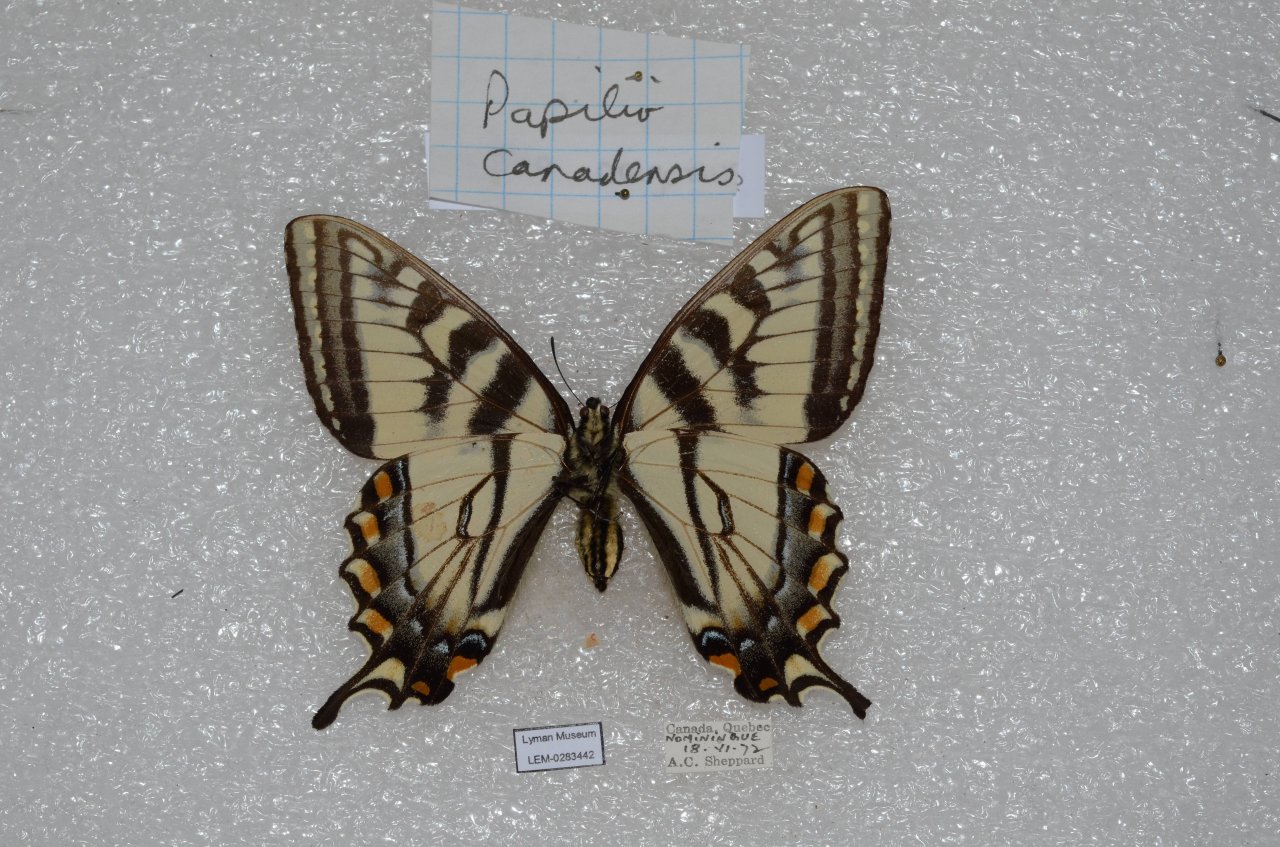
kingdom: Animalia
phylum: Arthropoda
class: Insecta
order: Lepidoptera
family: Papilionidae
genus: Pterourus
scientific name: Pterourus canadensis
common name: Canadian Tiger Swallowtail
